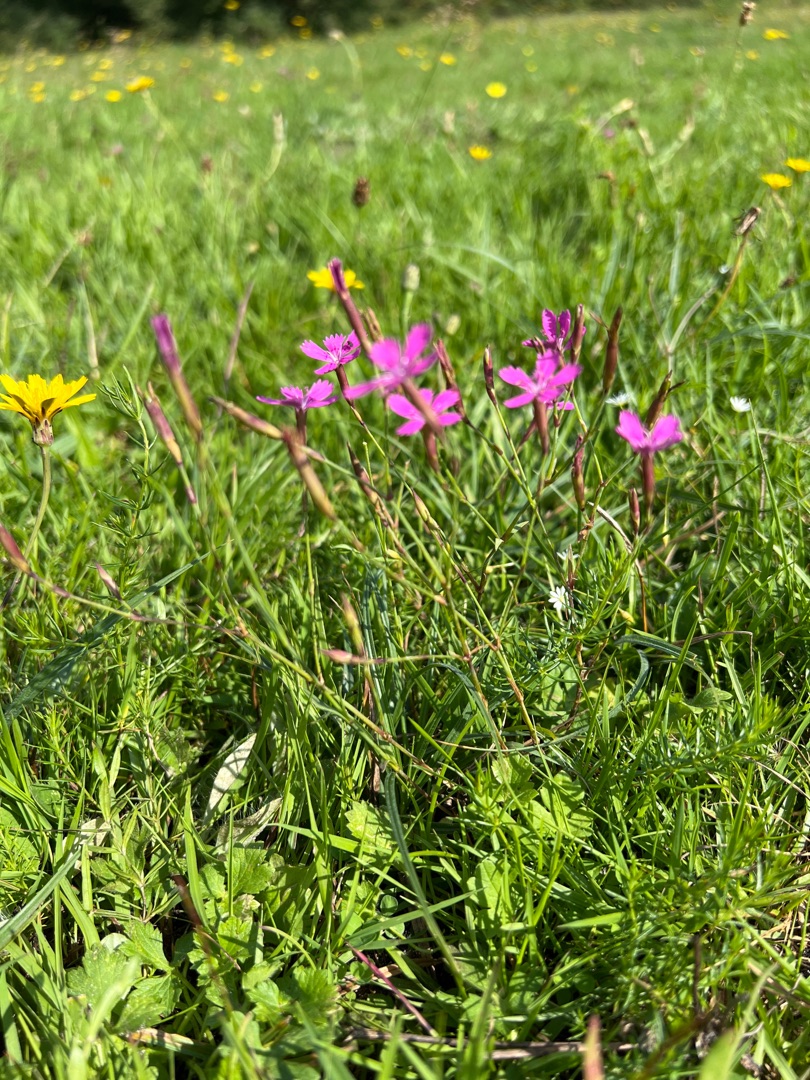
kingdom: Plantae
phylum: Tracheophyta
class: Magnoliopsida
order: Caryophyllales
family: Caryophyllaceae
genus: Dianthus
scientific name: Dianthus deltoides
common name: Bakke-nellike
